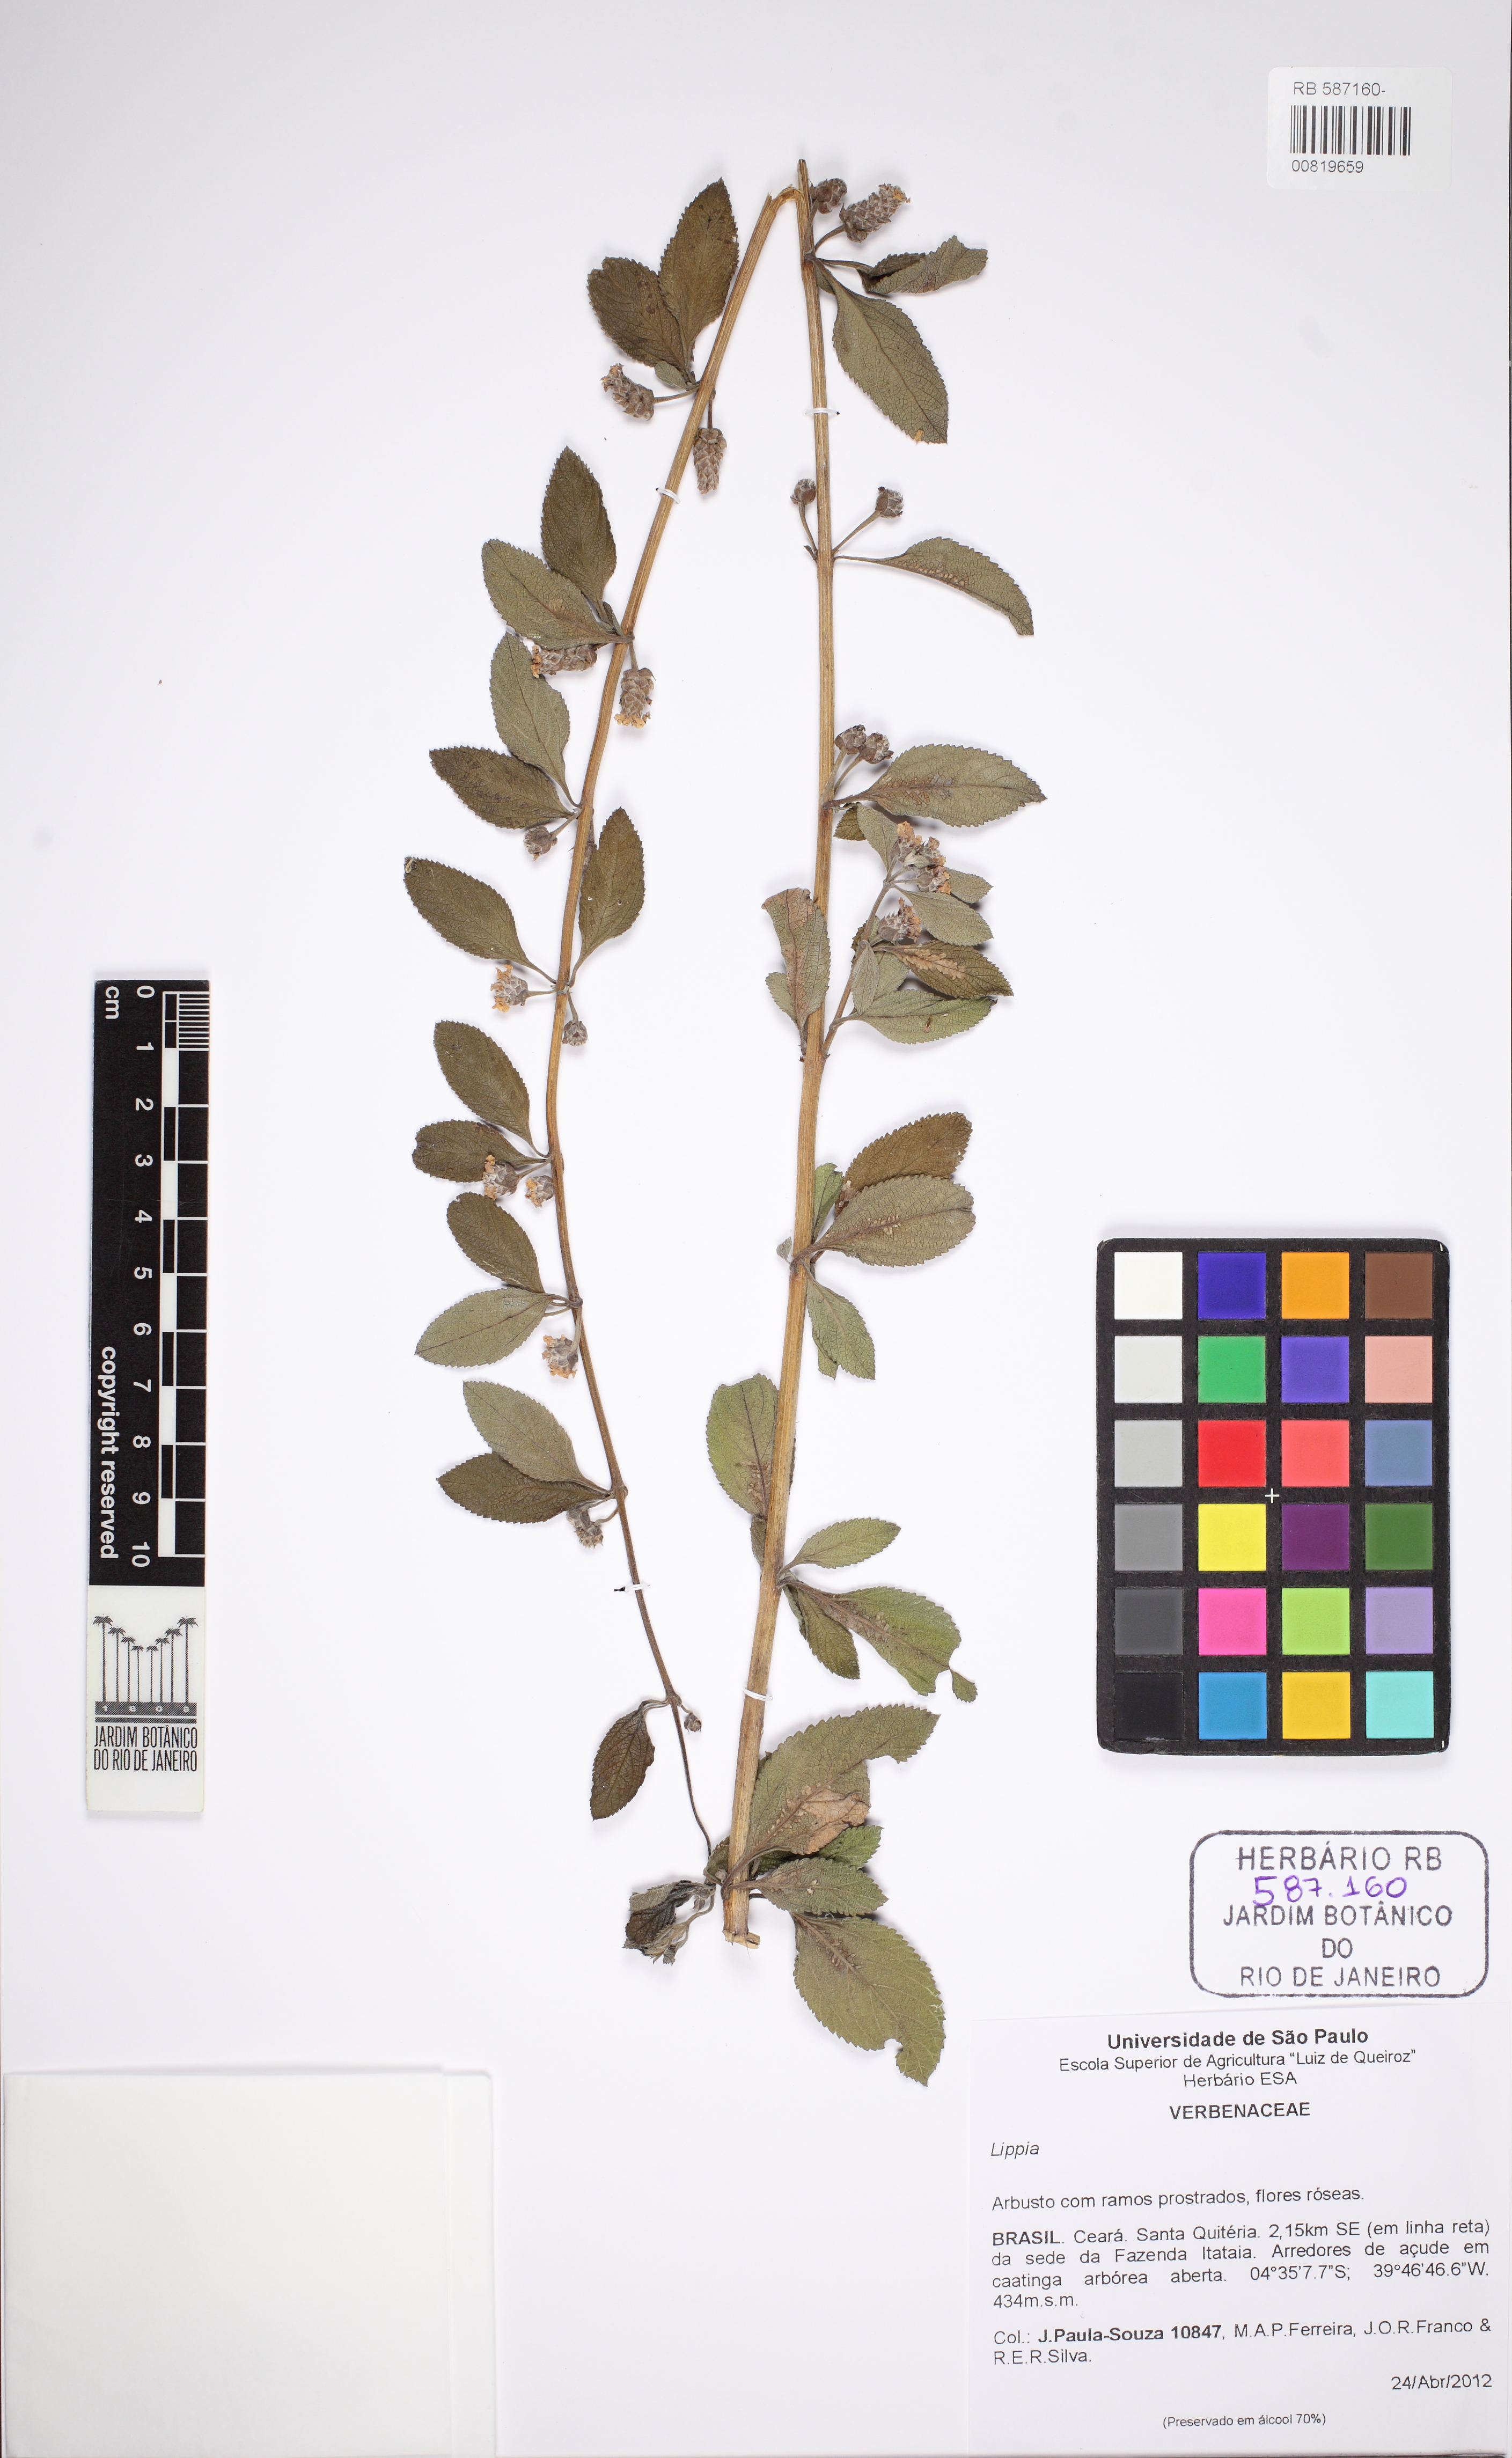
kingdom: Plantae
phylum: Tracheophyta
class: Magnoliopsida
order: Lamiales
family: Verbenaceae
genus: Lippia
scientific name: Lippia
